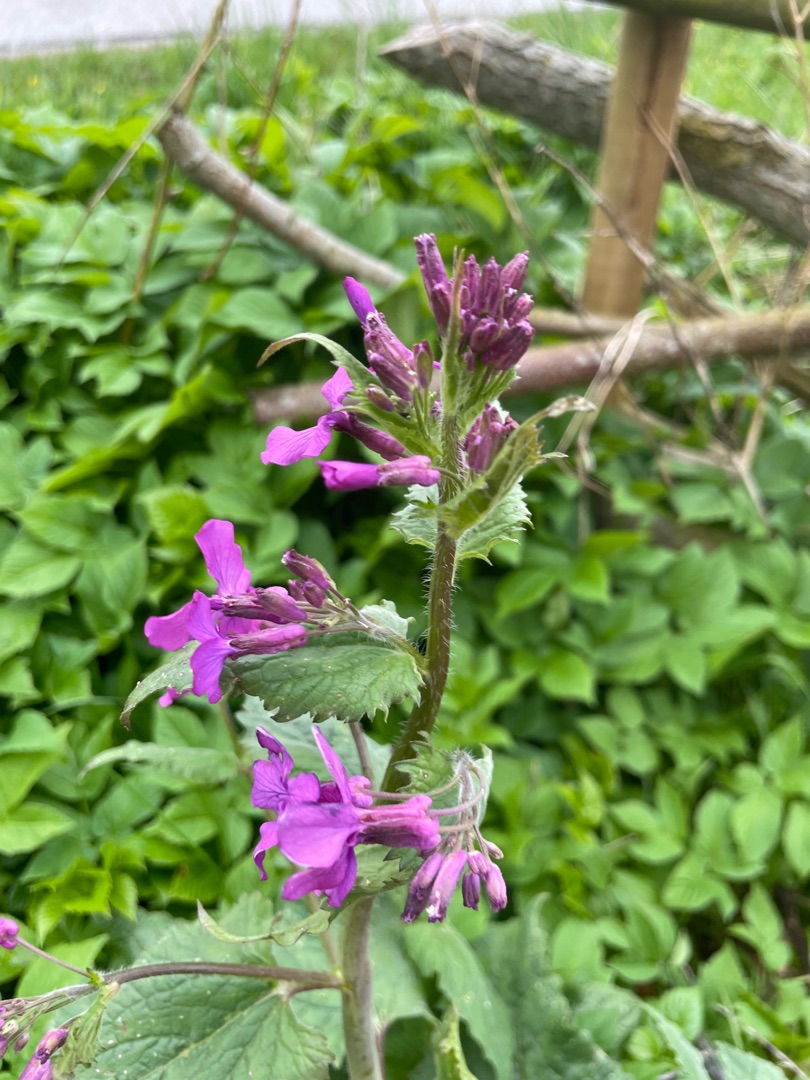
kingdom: Plantae
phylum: Tracheophyta
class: Magnoliopsida
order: Brassicales
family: Brassicaceae
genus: Lunaria
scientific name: Lunaria annua
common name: Judaspenge
